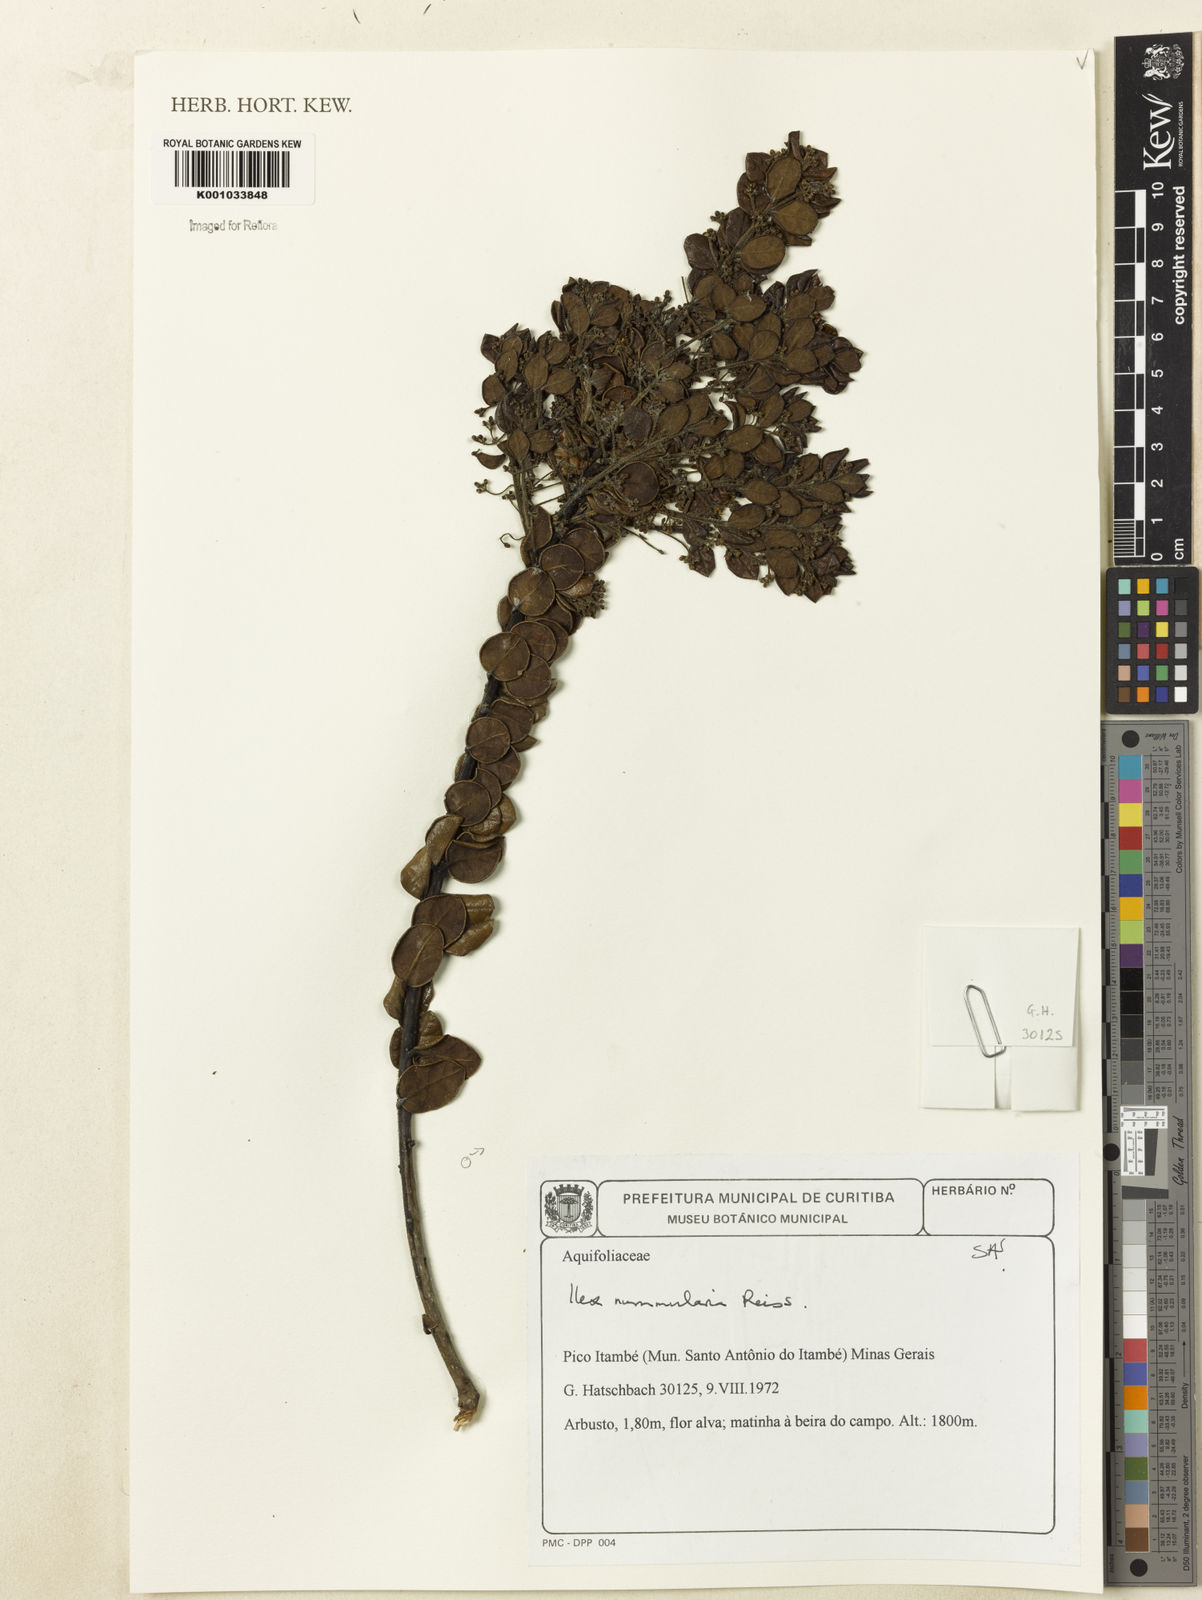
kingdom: Plantae
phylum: Tracheophyta
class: Magnoliopsida
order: Aquifoliales
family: Aquifoliaceae
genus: Ilex
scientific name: Ilex nummularia
